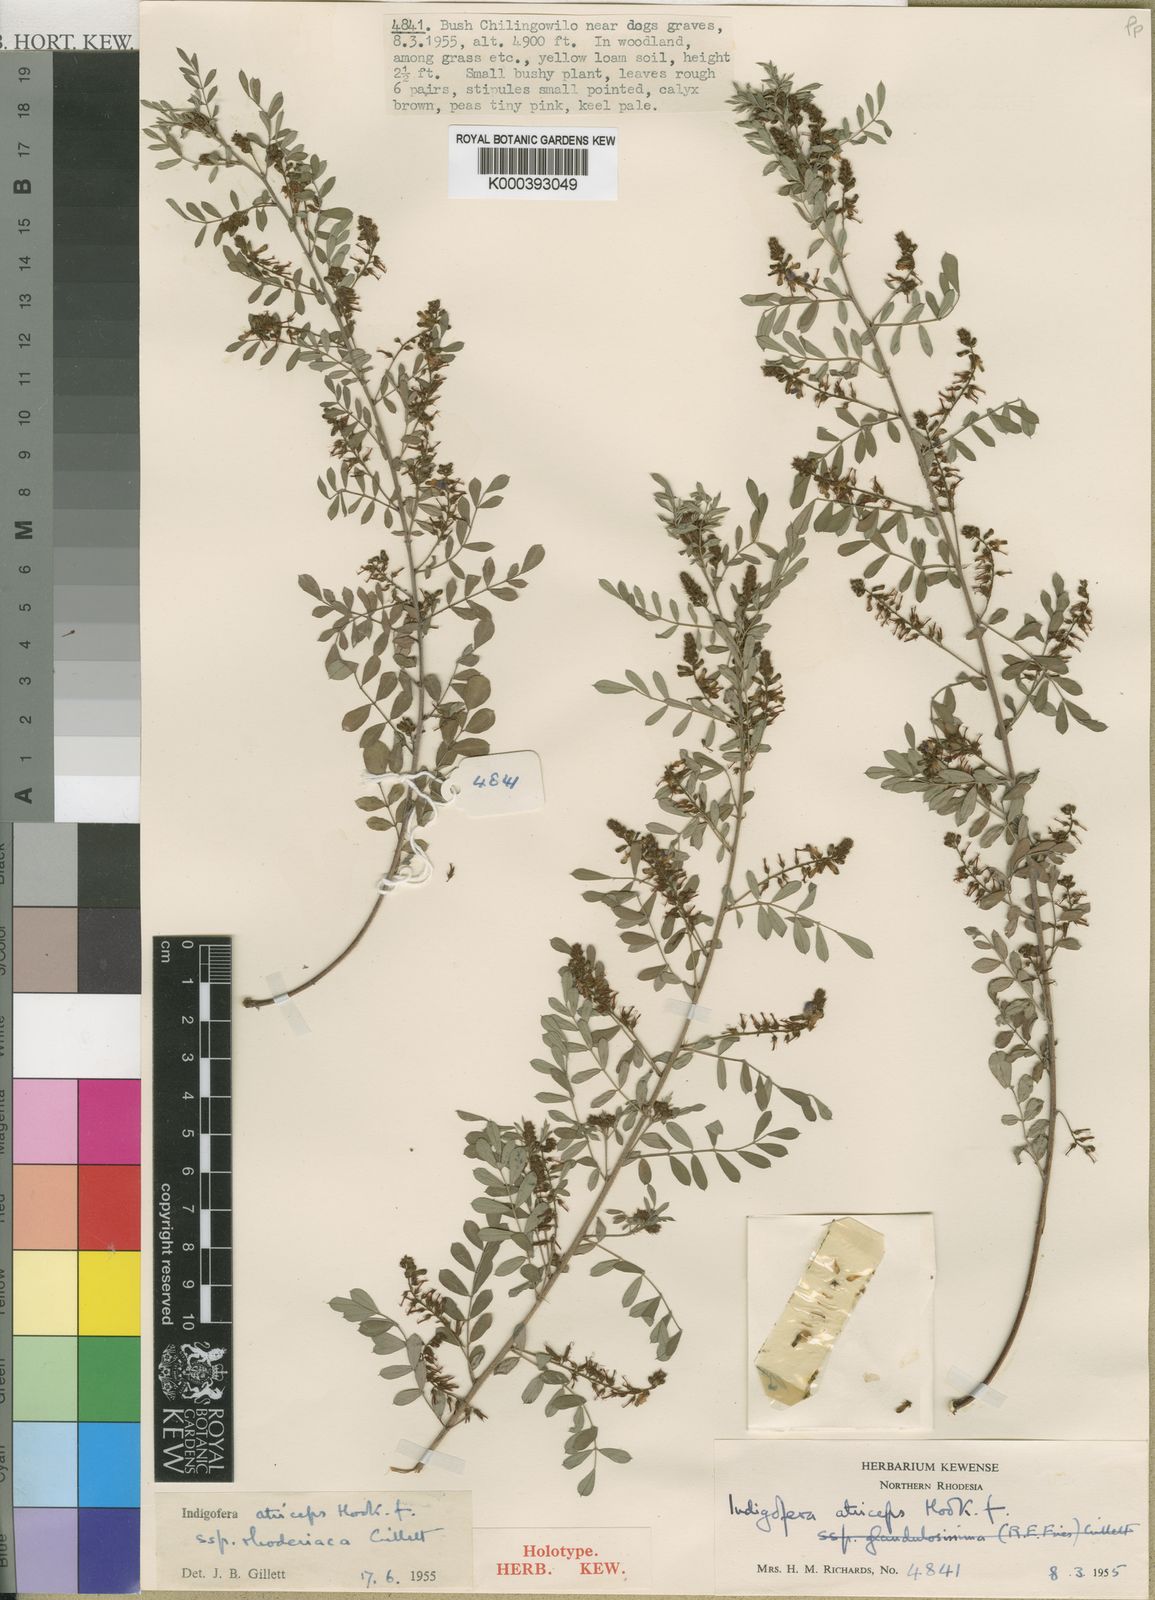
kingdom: Plantae
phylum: Tracheophyta
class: Magnoliopsida
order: Fabales
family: Fabaceae
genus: Indigofera
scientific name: Indigofera glaucifolia
